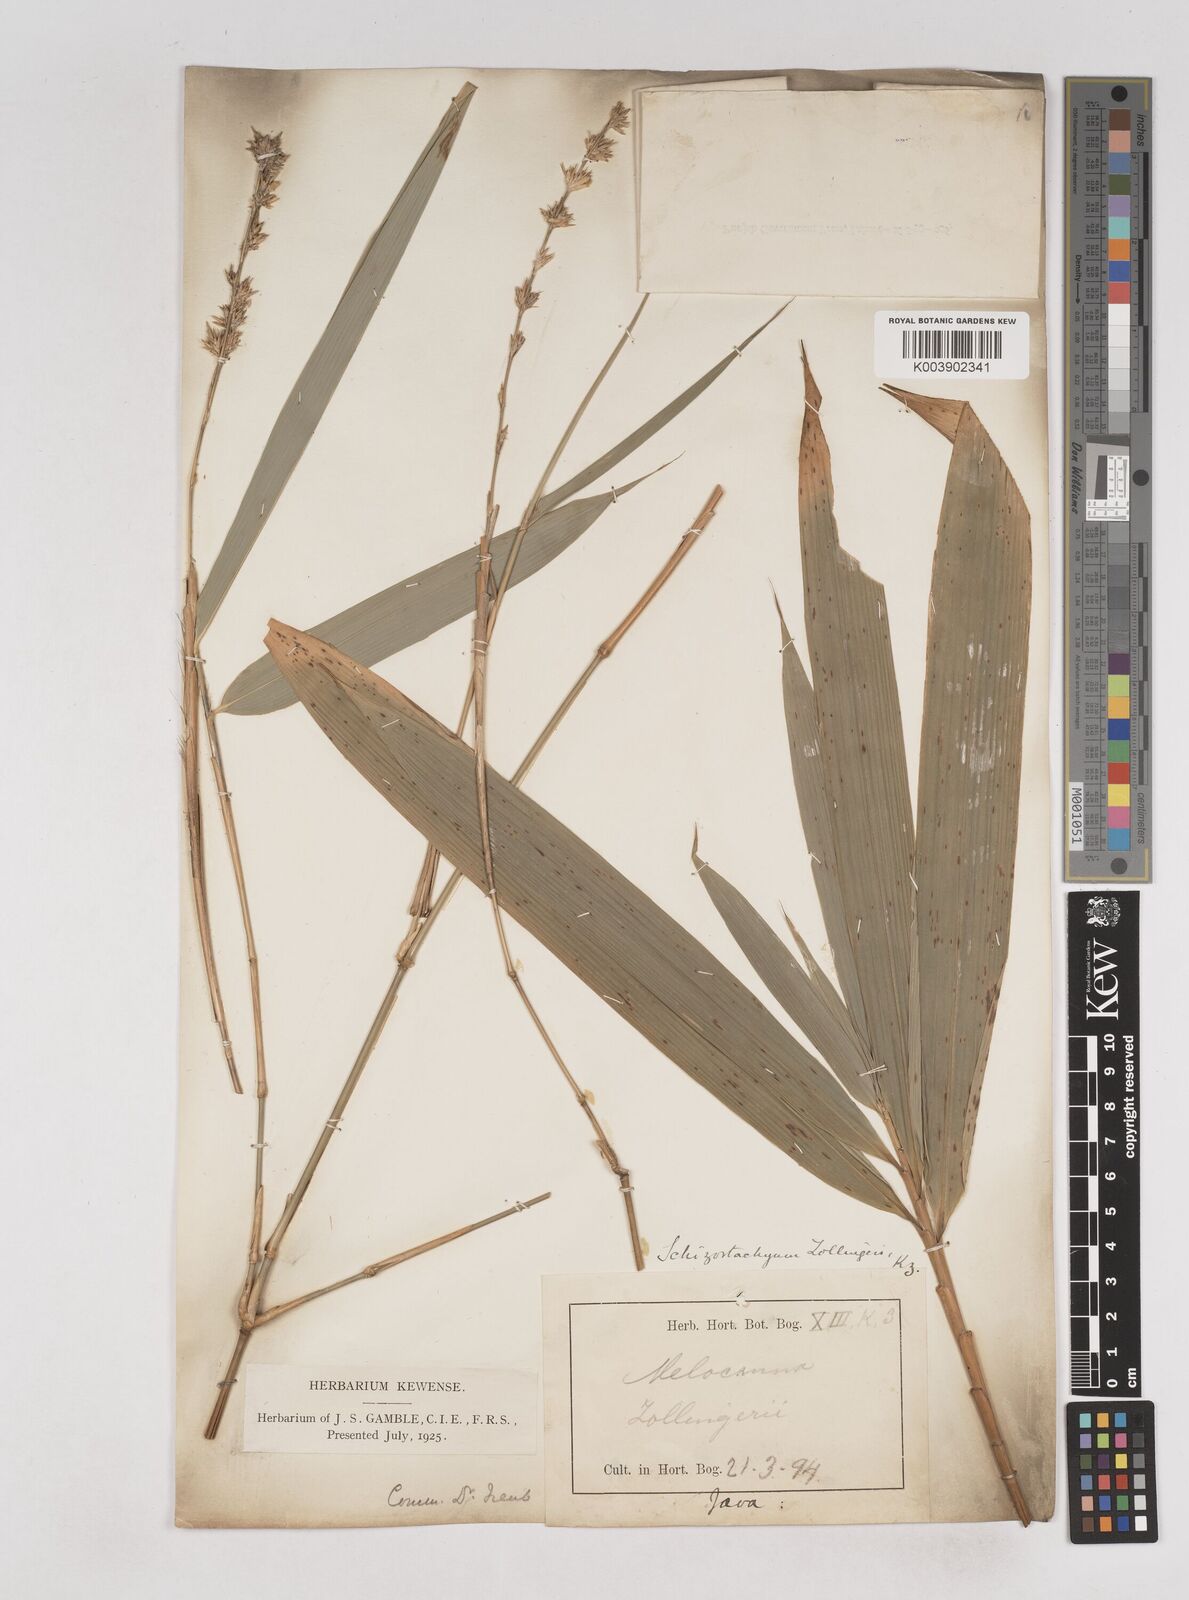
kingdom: Plantae
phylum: Tracheophyta
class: Liliopsida
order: Poales
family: Poaceae
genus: Schizostachyum
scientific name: Schizostachyum zollingeri
